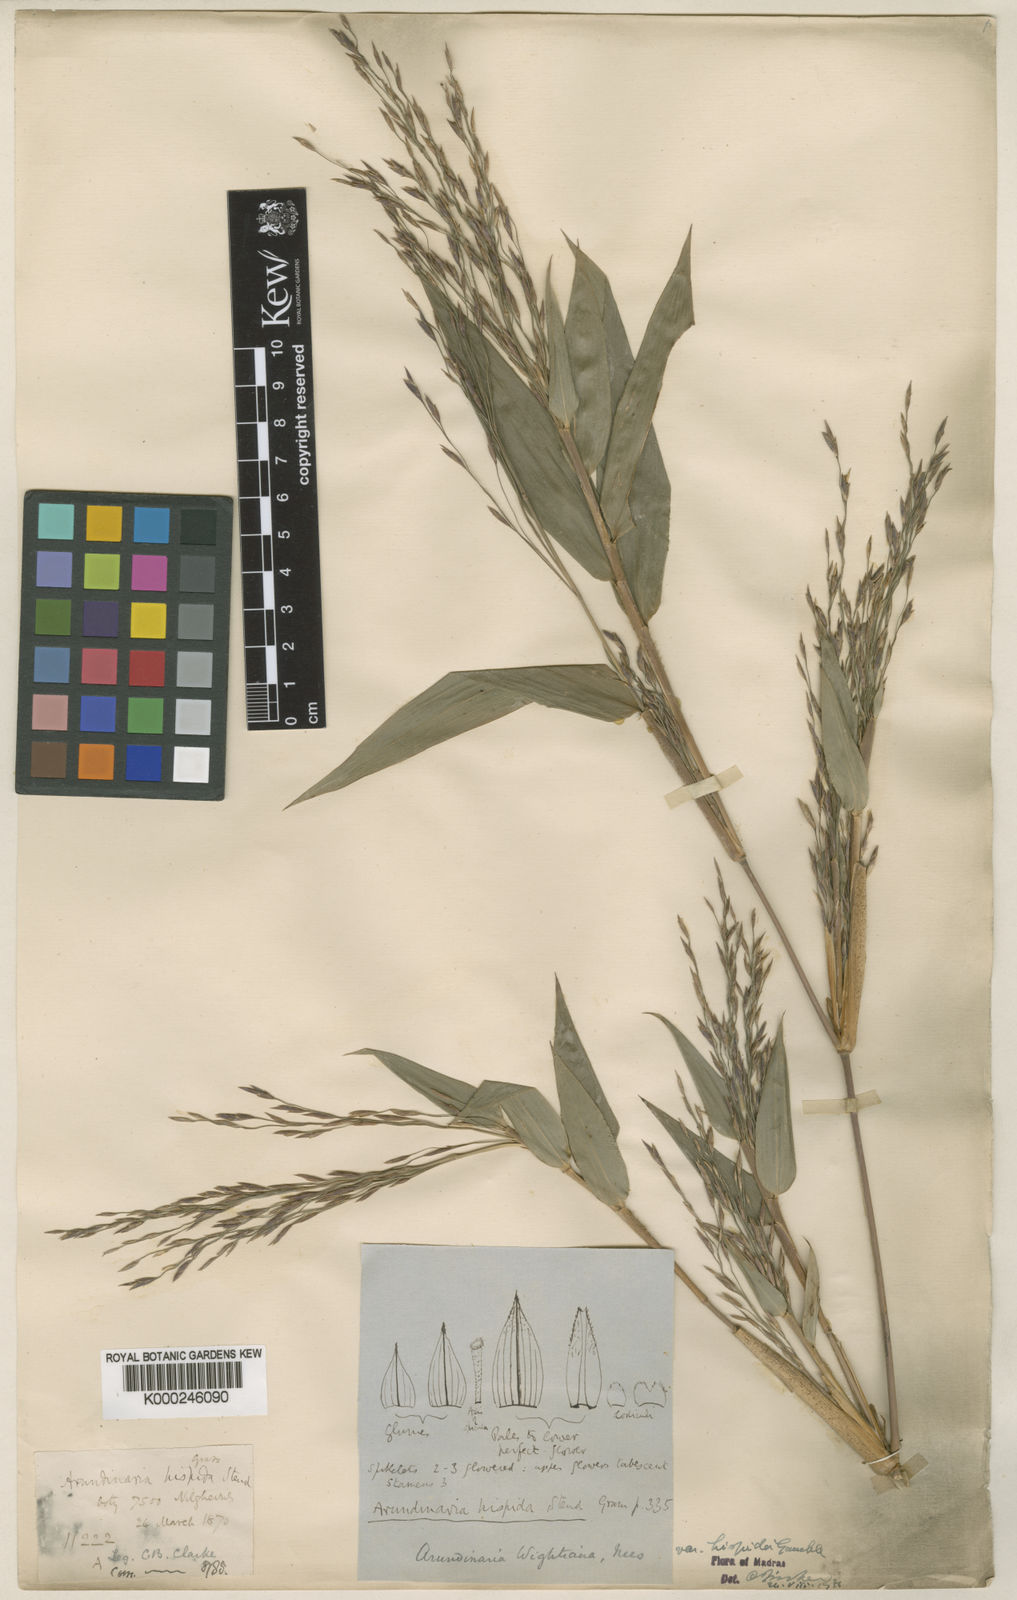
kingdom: Plantae
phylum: Tracheophyta
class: Liliopsida
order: Poales
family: Poaceae
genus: Kuruna
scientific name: Kuruna wightiana
